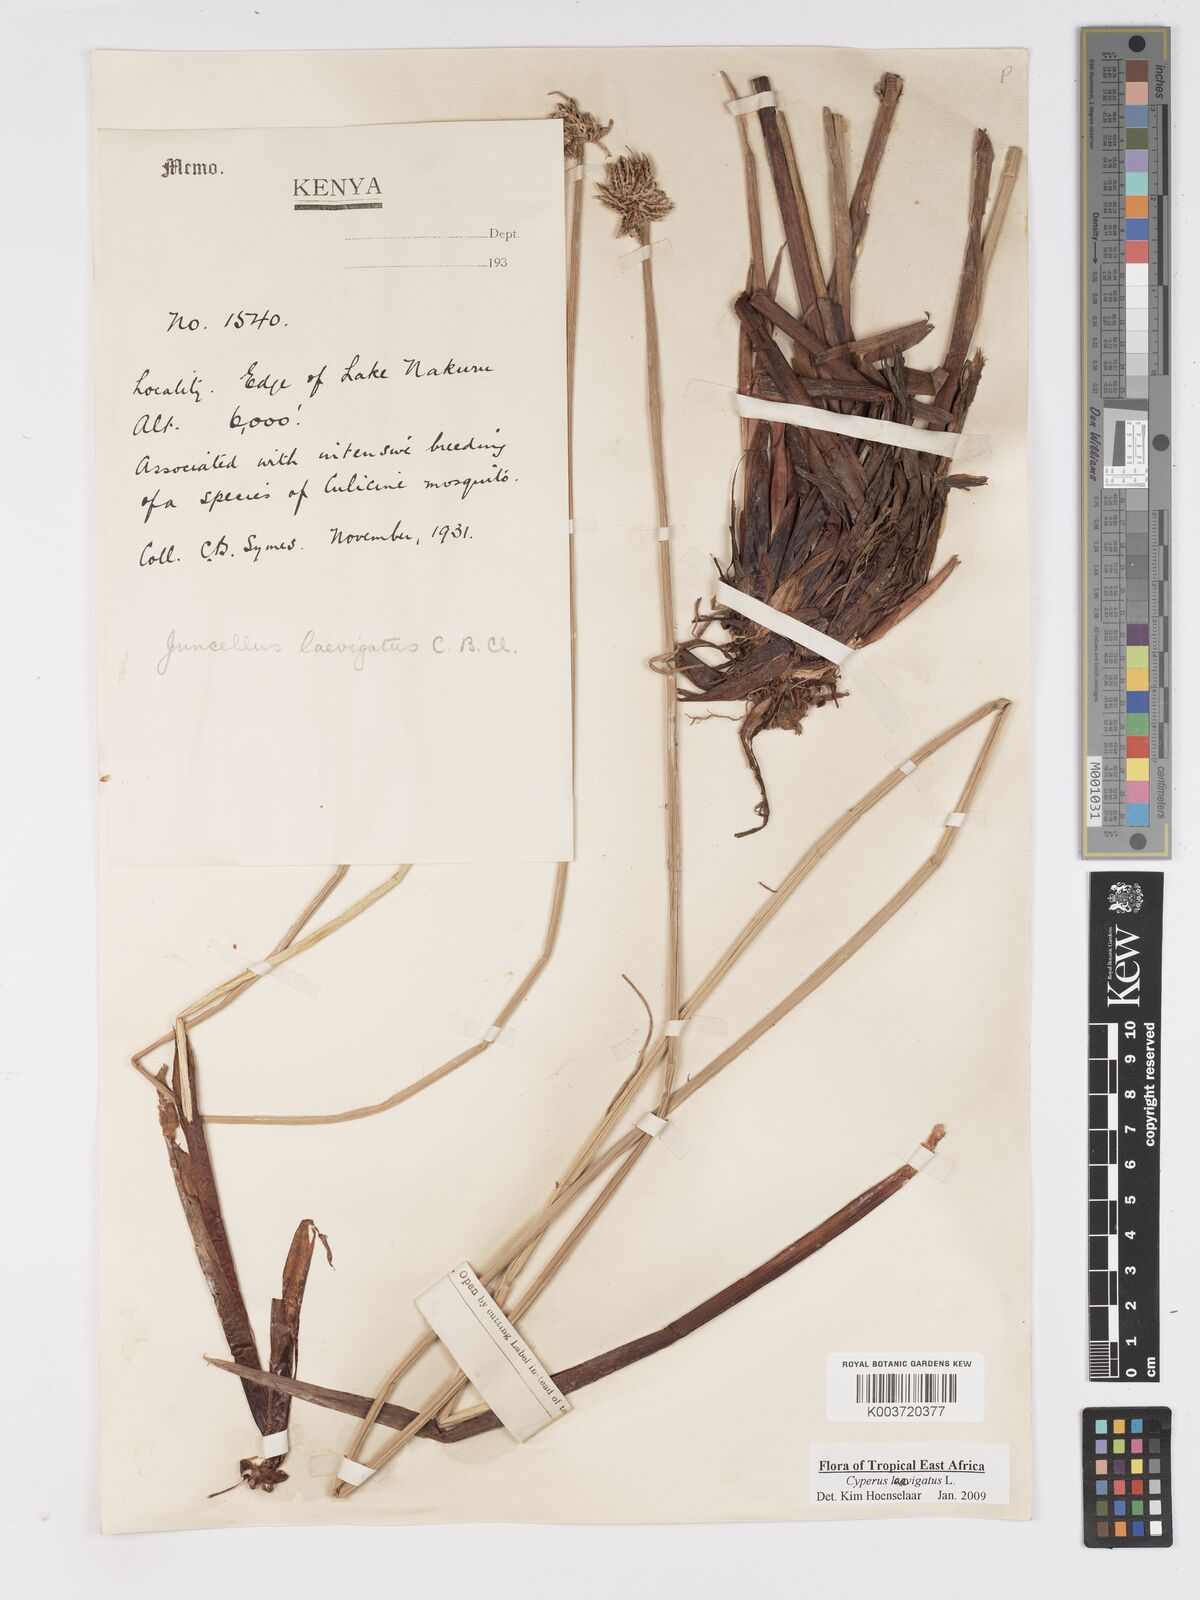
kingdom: Plantae
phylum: Tracheophyta
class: Liliopsida
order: Poales
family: Cyperaceae
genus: Cyperus
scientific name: Cyperus laevigatus
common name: Smooth flat sedge
